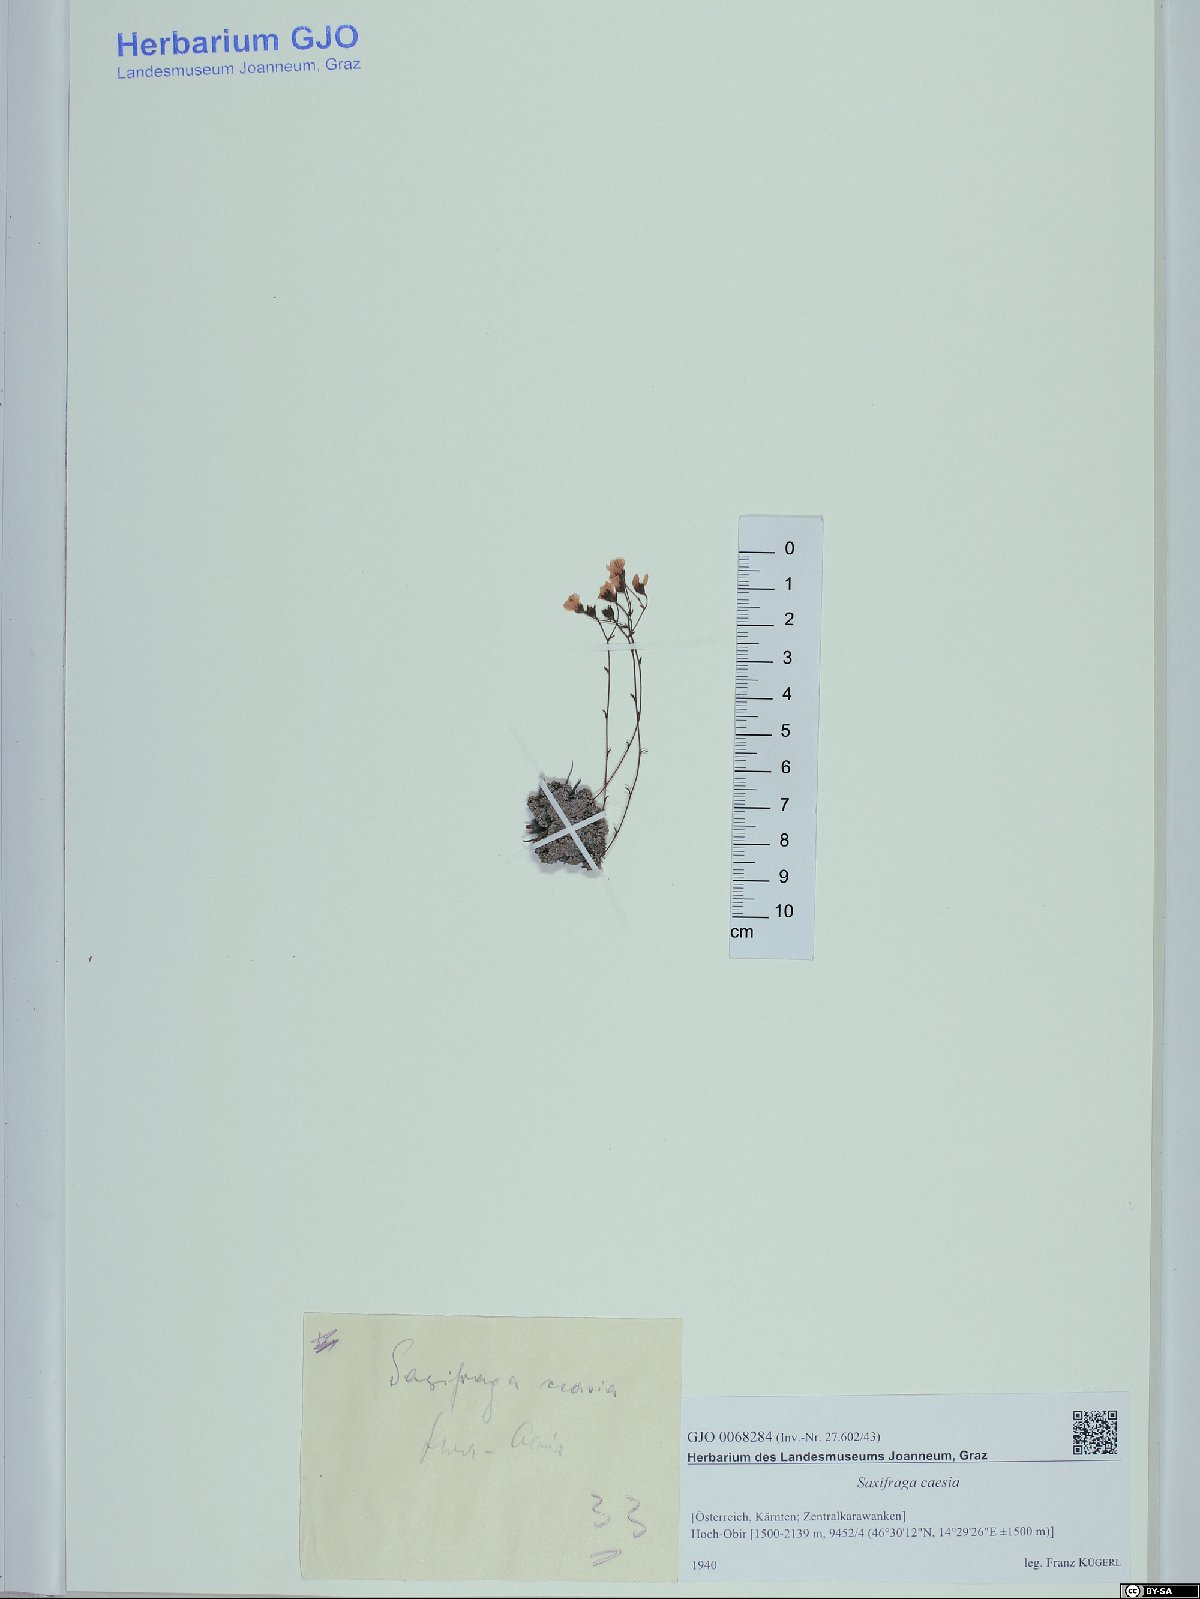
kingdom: Plantae
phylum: Tracheophyta
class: Magnoliopsida
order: Saxifragales
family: Saxifragaceae
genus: Saxifraga
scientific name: Saxifraga caesia
